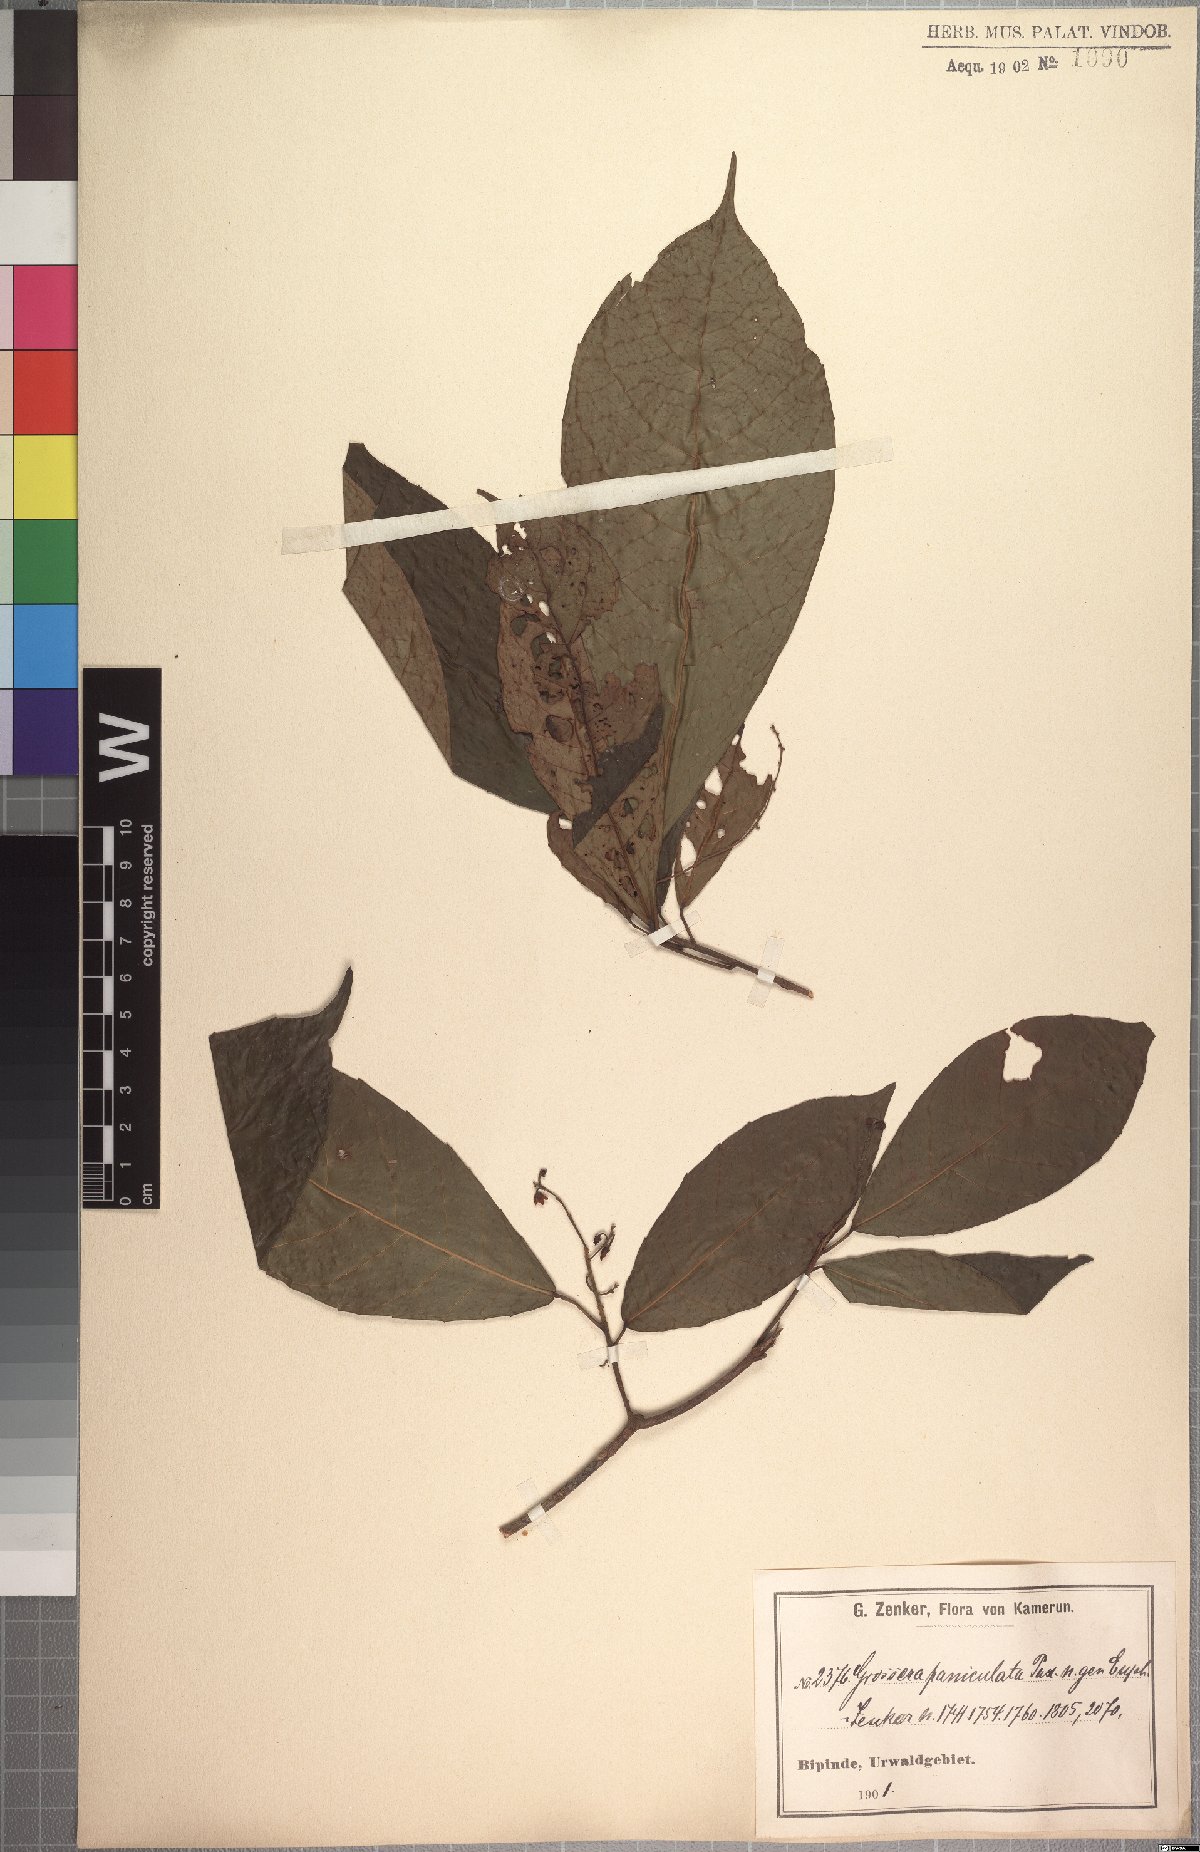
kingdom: Plantae
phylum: Tracheophyta
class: Magnoliopsida
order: Malpighiales
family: Euphorbiaceae
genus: Grossera
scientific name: Grossera paniculata
